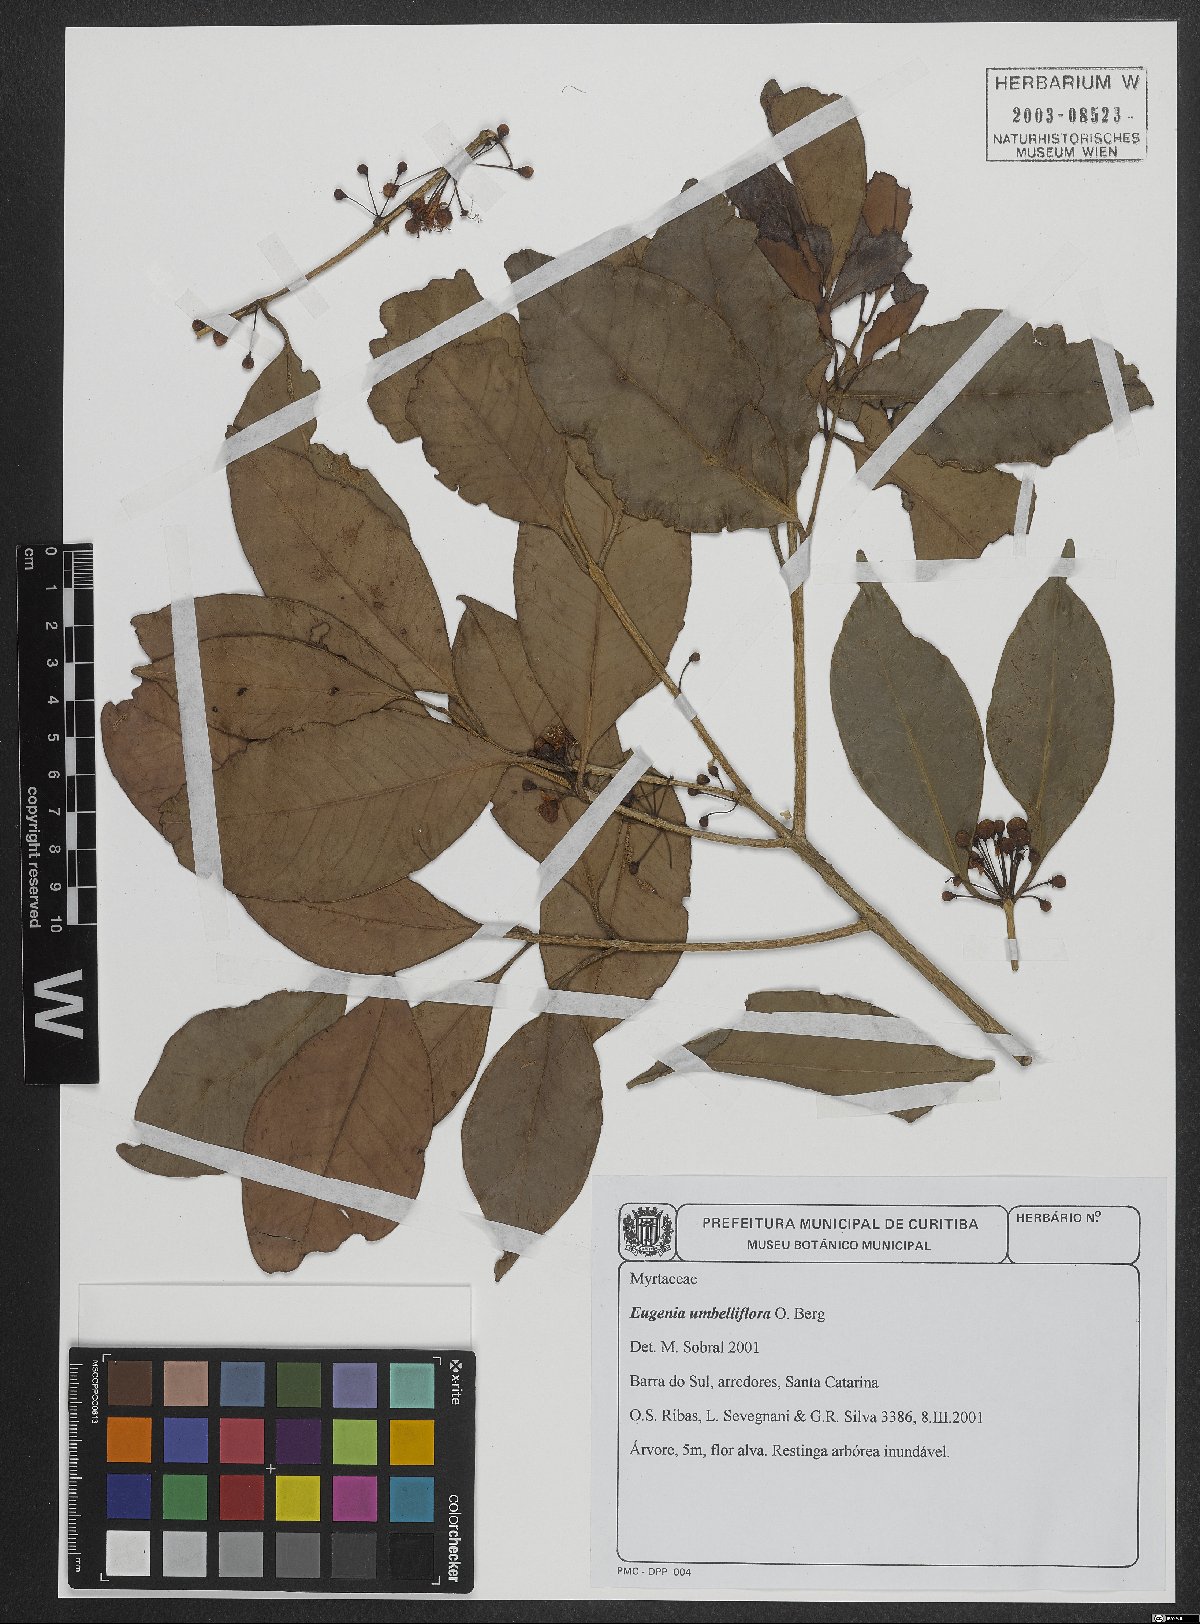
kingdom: Plantae
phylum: Tracheophyta
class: Magnoliopsida
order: Myrtales
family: Myrtaceae
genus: Eugenia
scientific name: Eugenia umbelliflora
